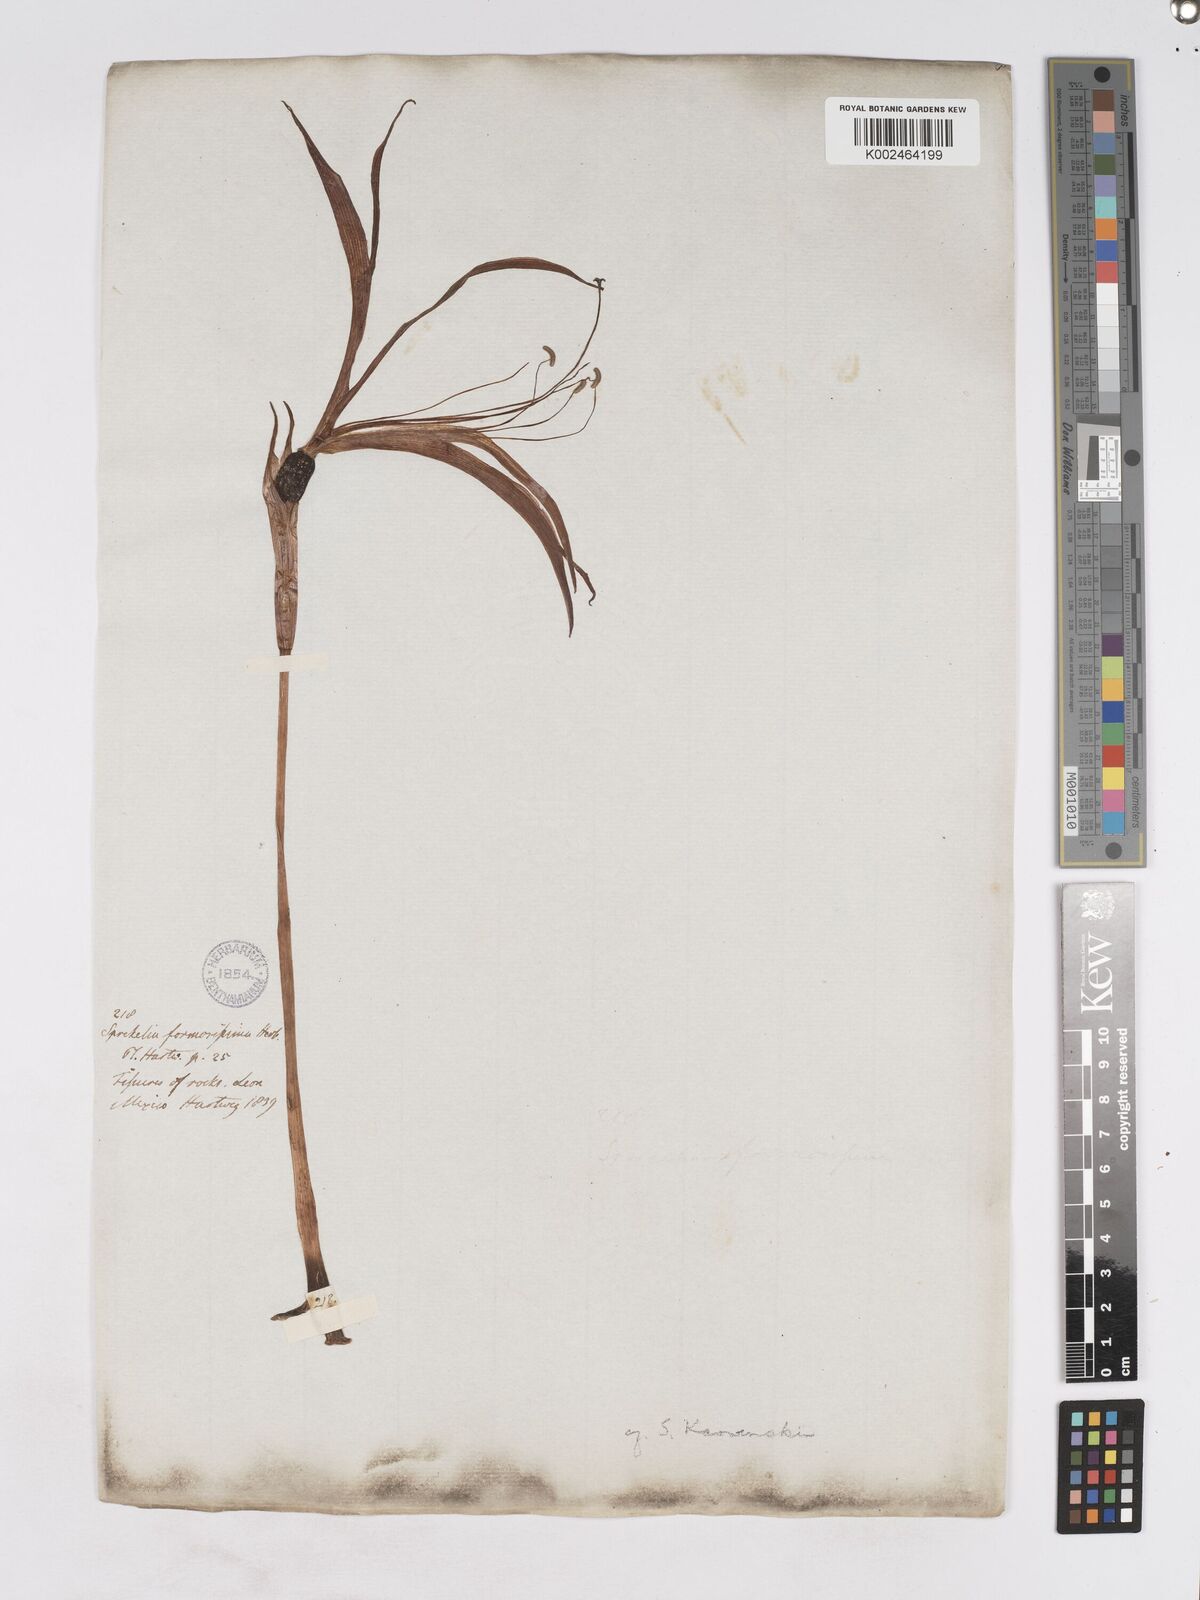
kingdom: Plantae
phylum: Tracheophyta
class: Liliopsida
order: Asparagales
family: Amaryllidaceae
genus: Sprekelia
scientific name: Sprekelia formosissima
